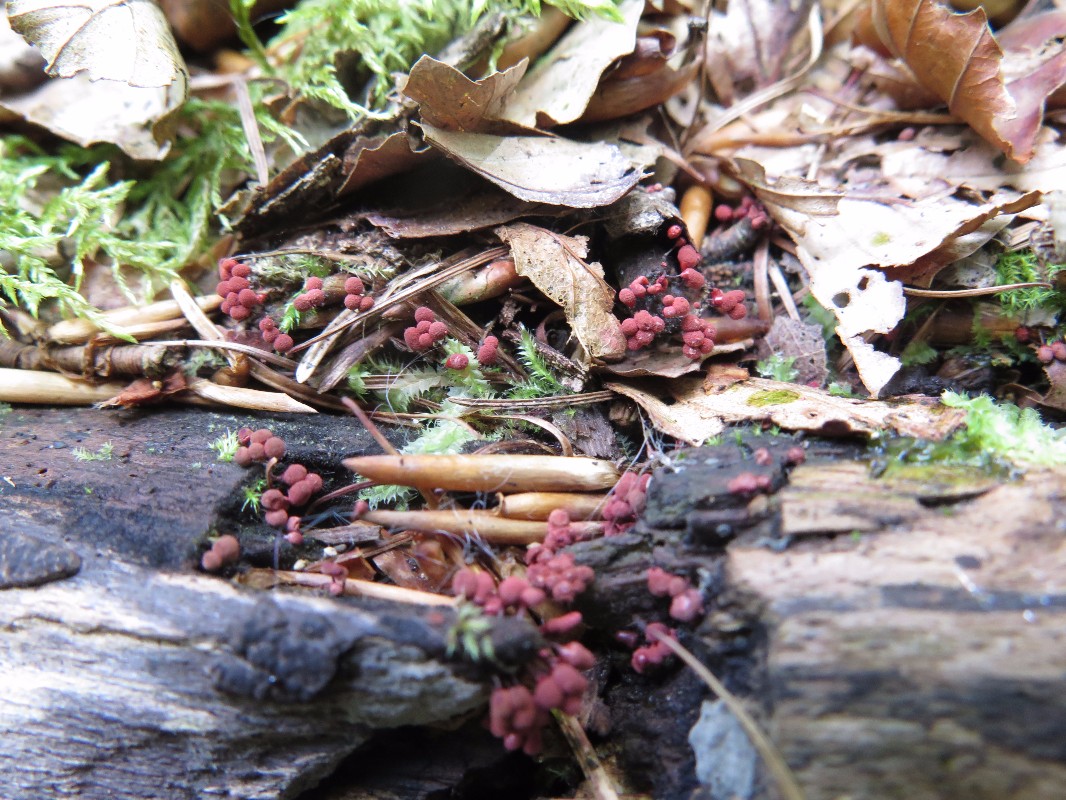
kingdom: Protozoa
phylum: Amoebozoa
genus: Arcyria
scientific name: Arcyria
